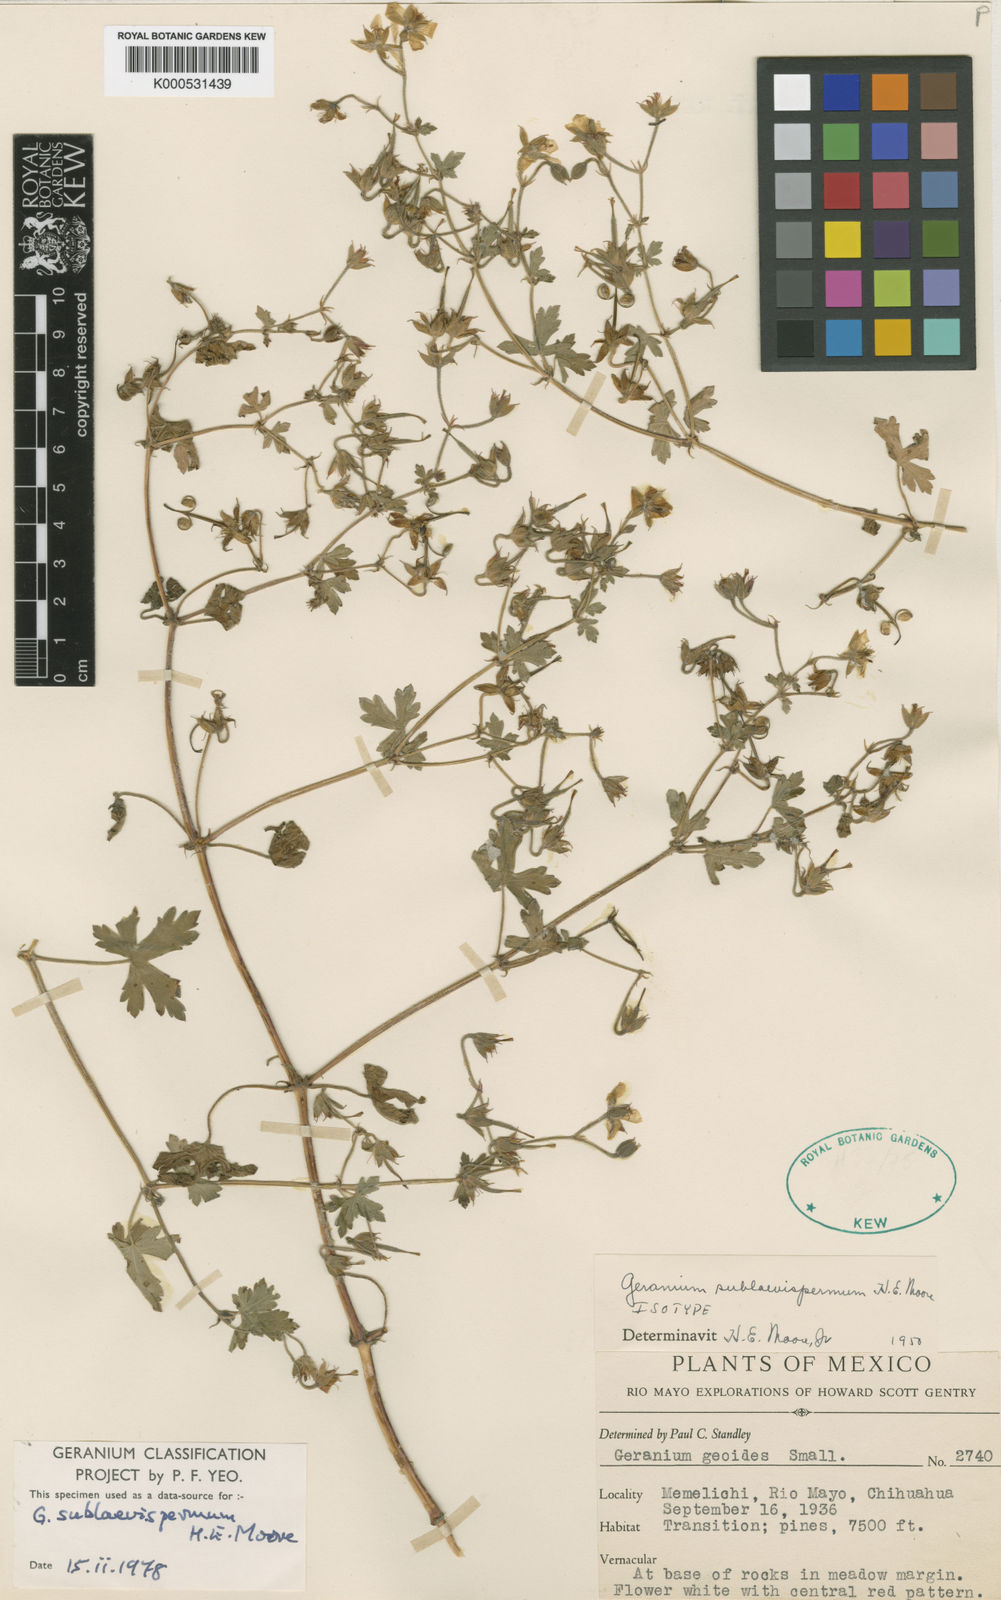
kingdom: Plantae
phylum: Tracheophyta
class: Magnoliopsida
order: Geraniales
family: Geraniaceae
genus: Geranium
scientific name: Geranium deltoideum
